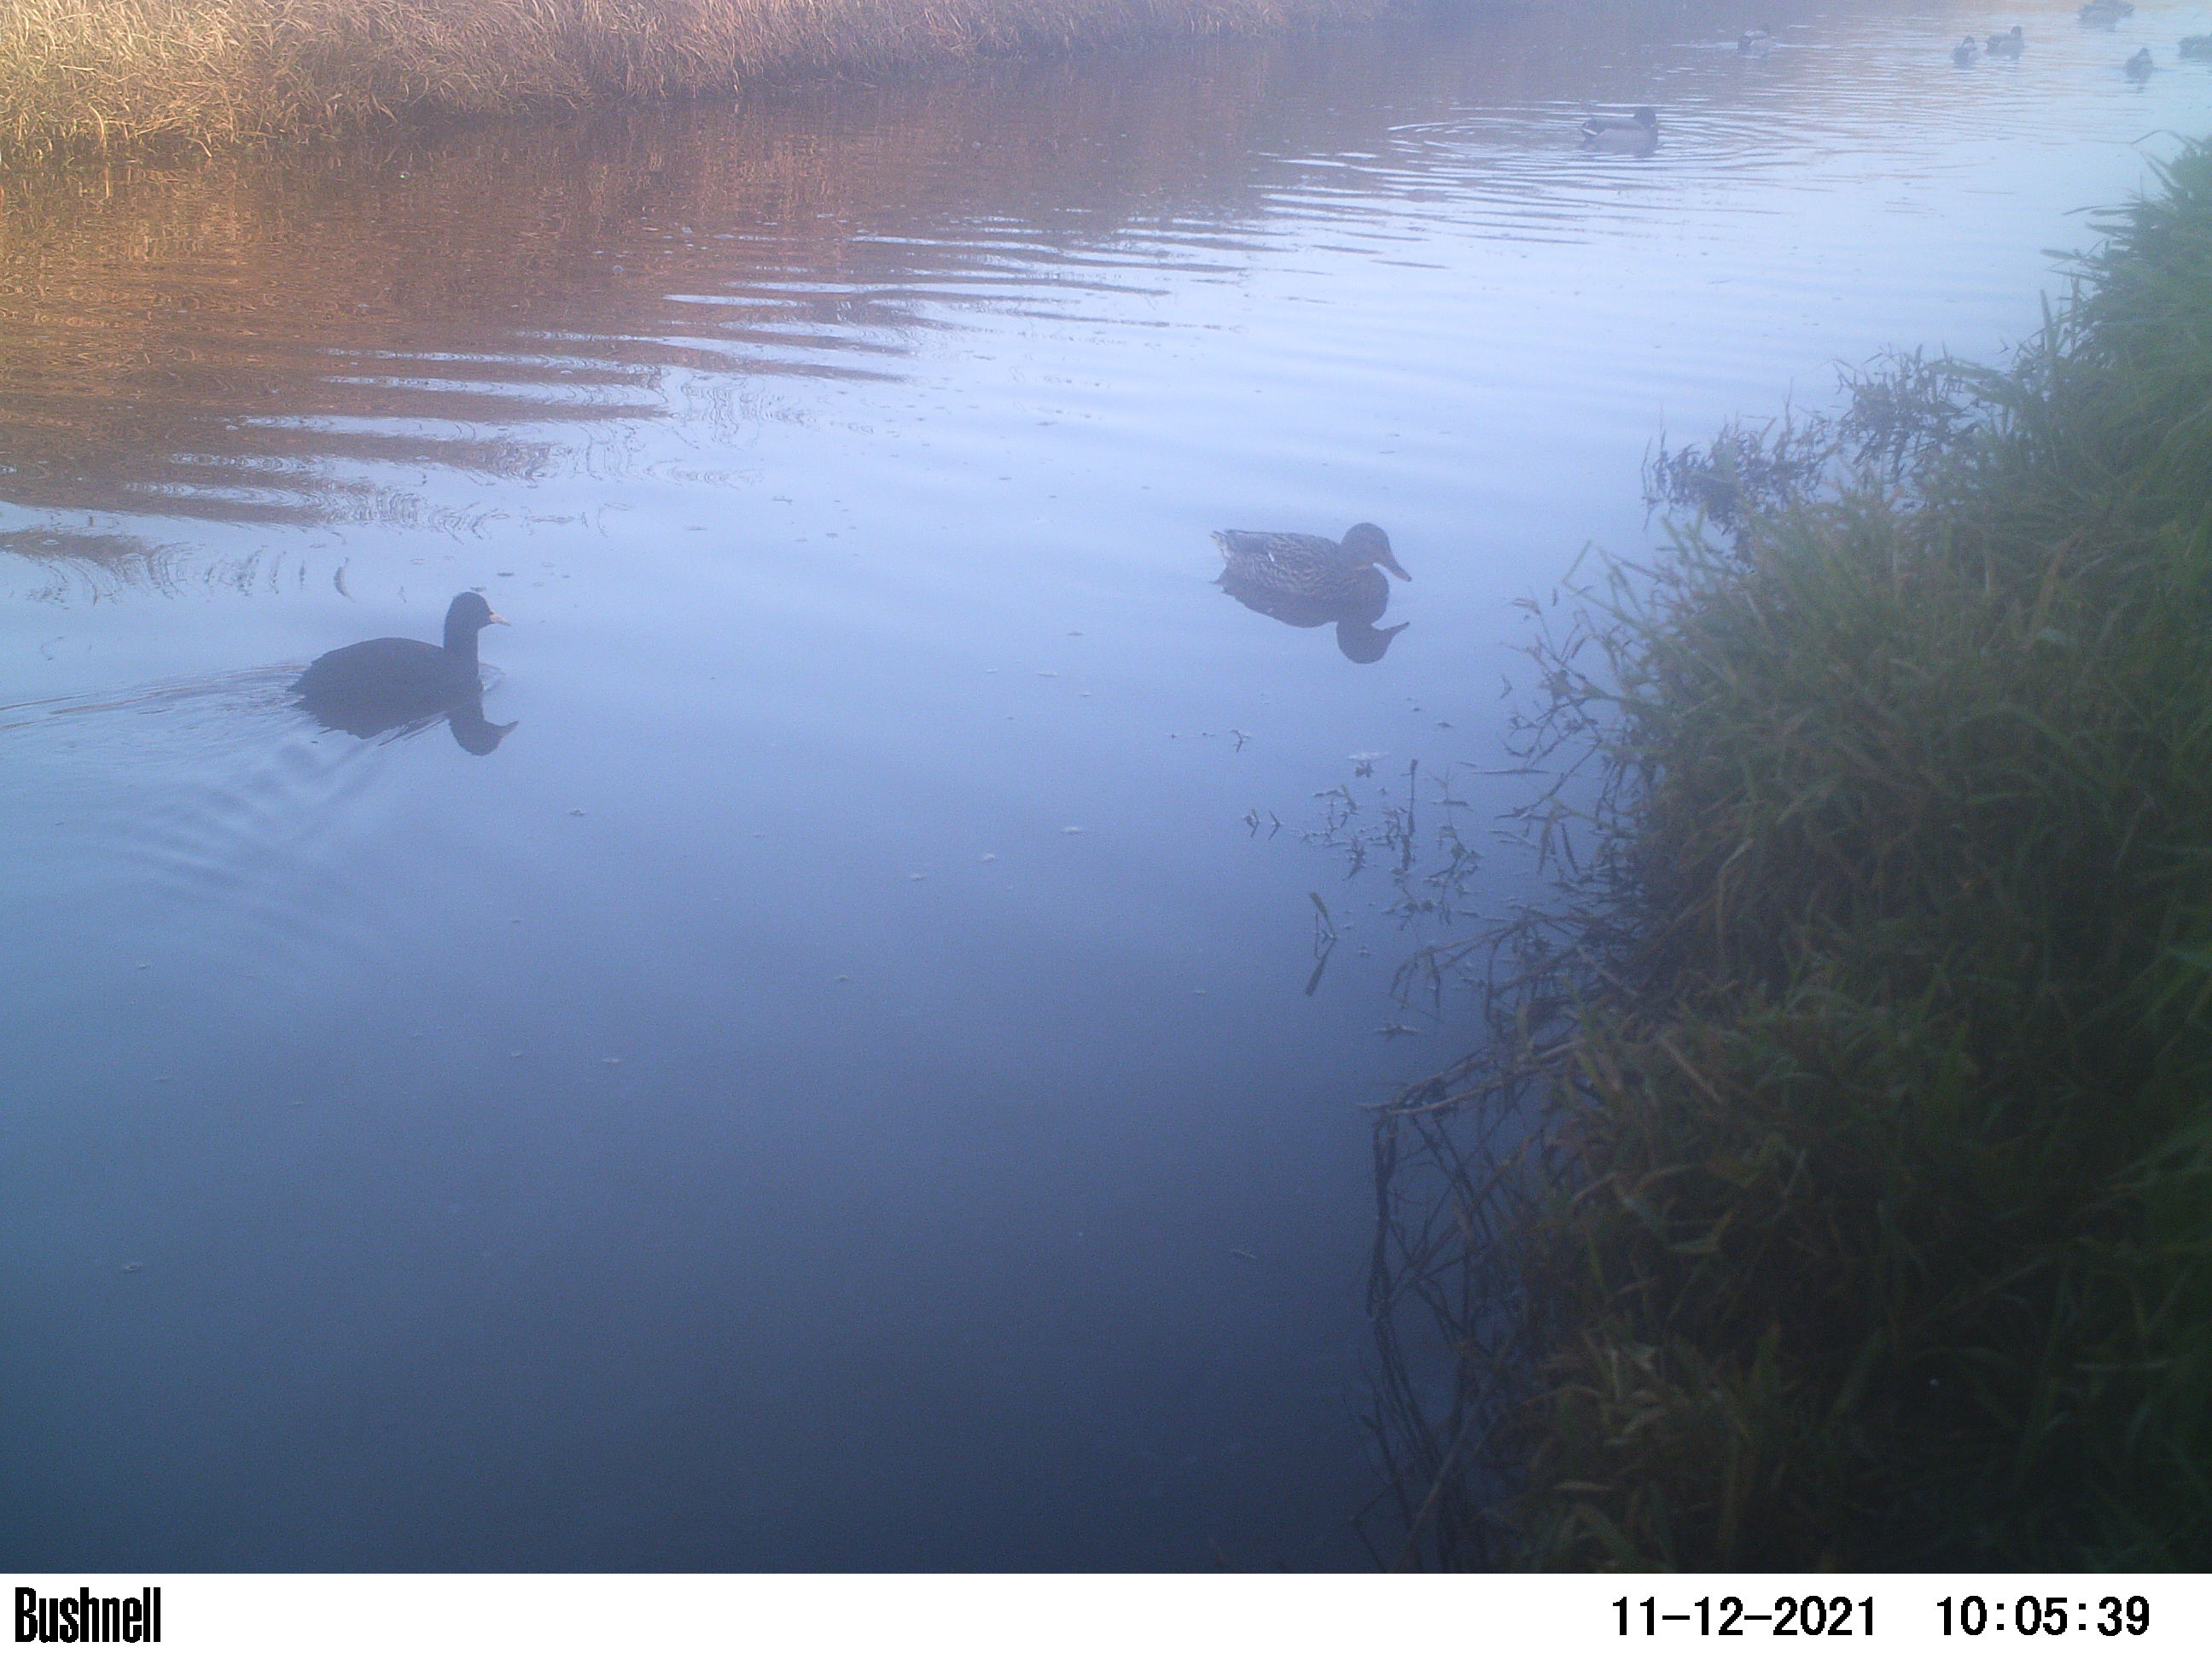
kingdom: Animalia
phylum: Chordata
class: Aves
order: Anseriformes
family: Anatidae
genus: Anas
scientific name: Anas
